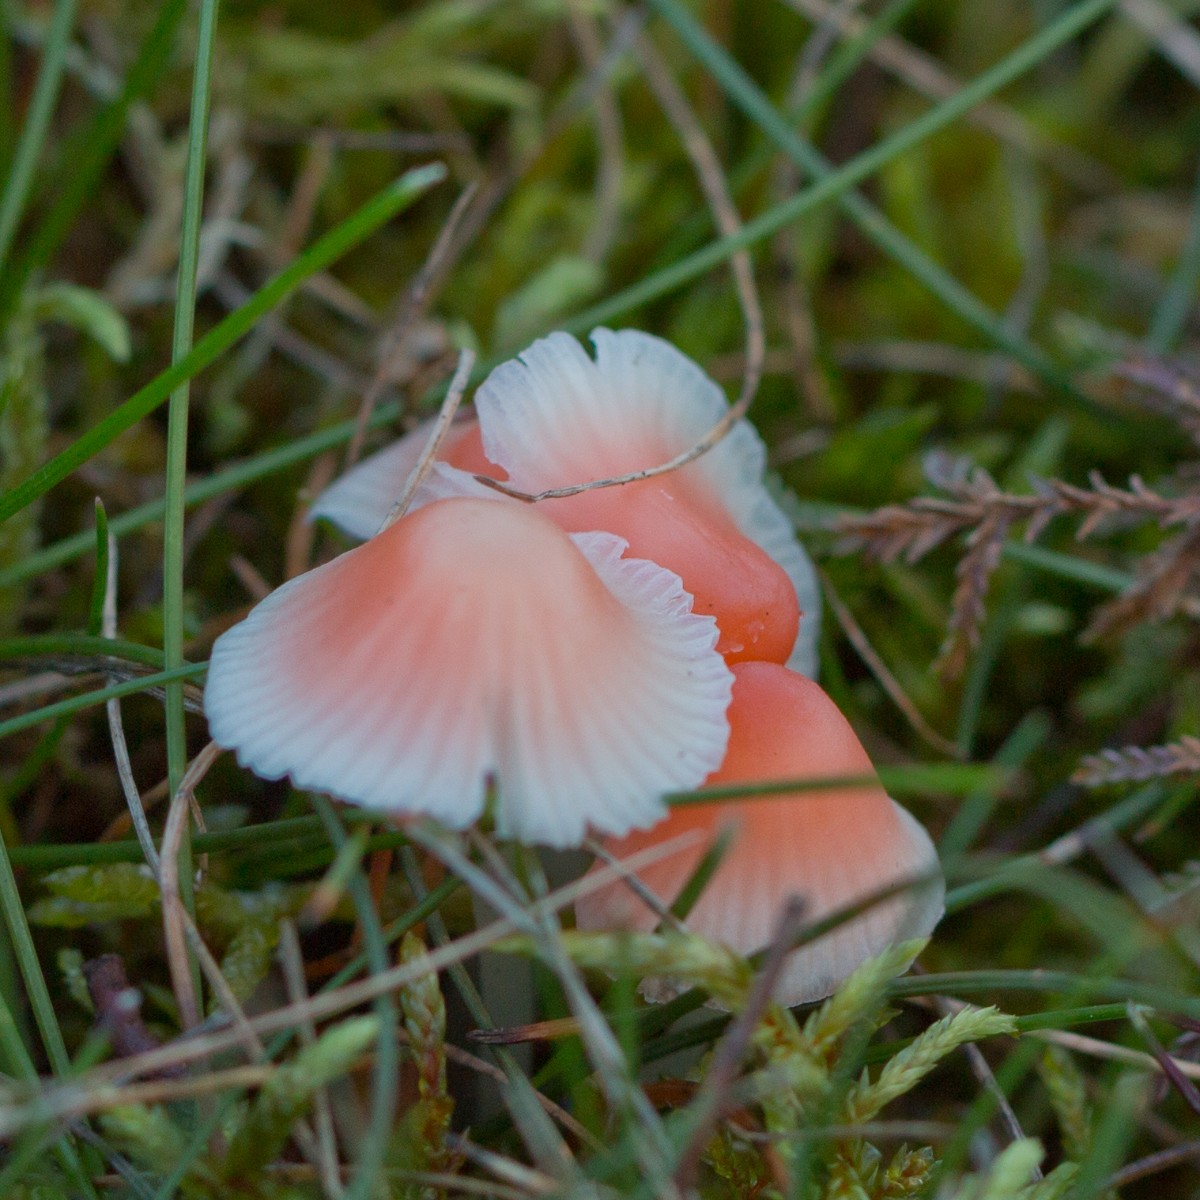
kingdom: Fungi
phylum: Basidiomycota
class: Agaricomycetes
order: Agaricales
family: Mycenaceae
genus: Atheniella
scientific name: Atheniella adonis
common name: rønnerød huesvamp
